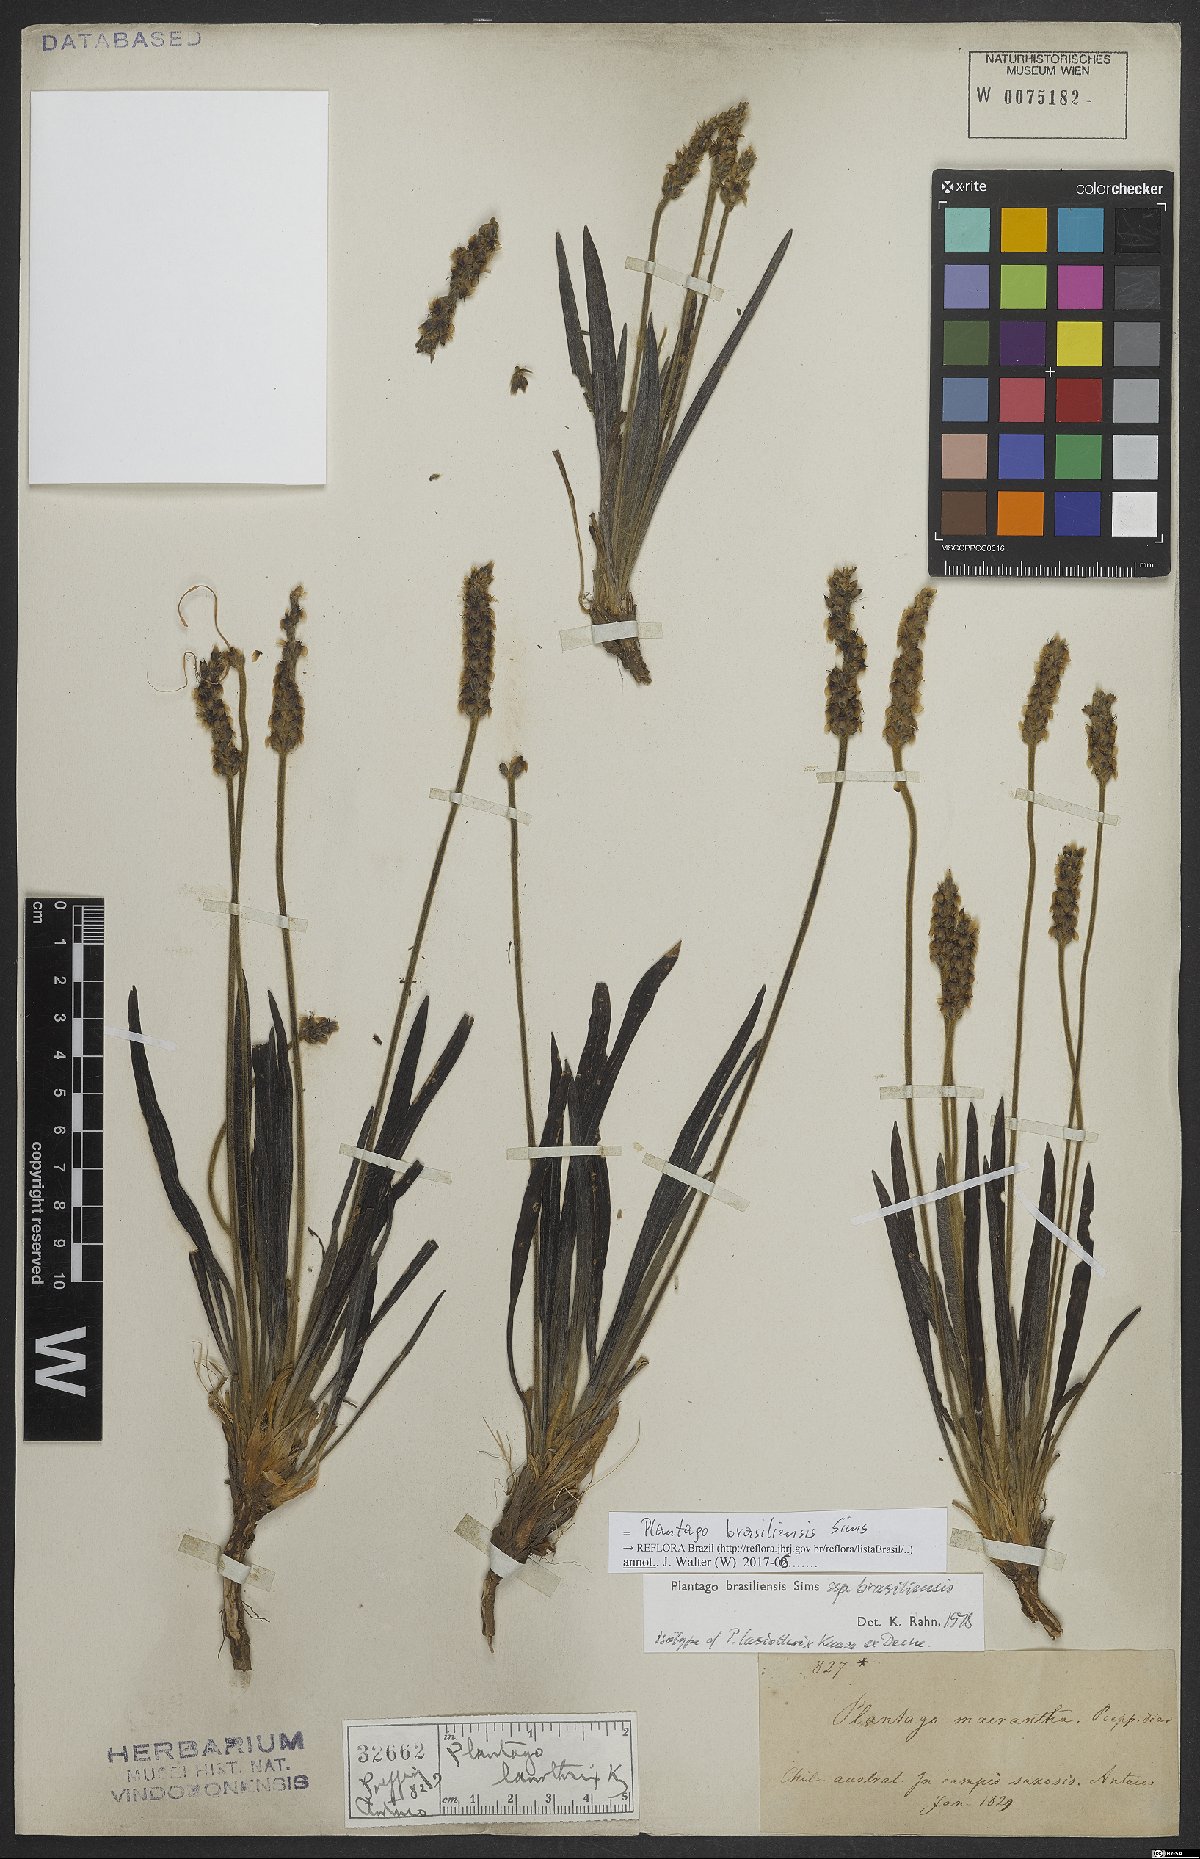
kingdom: Plantae
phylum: Tracheophyta
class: Magnoliopsida
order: Lamiales
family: Plantaginaceae
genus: Plantago
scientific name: Plantago brasiliensis
